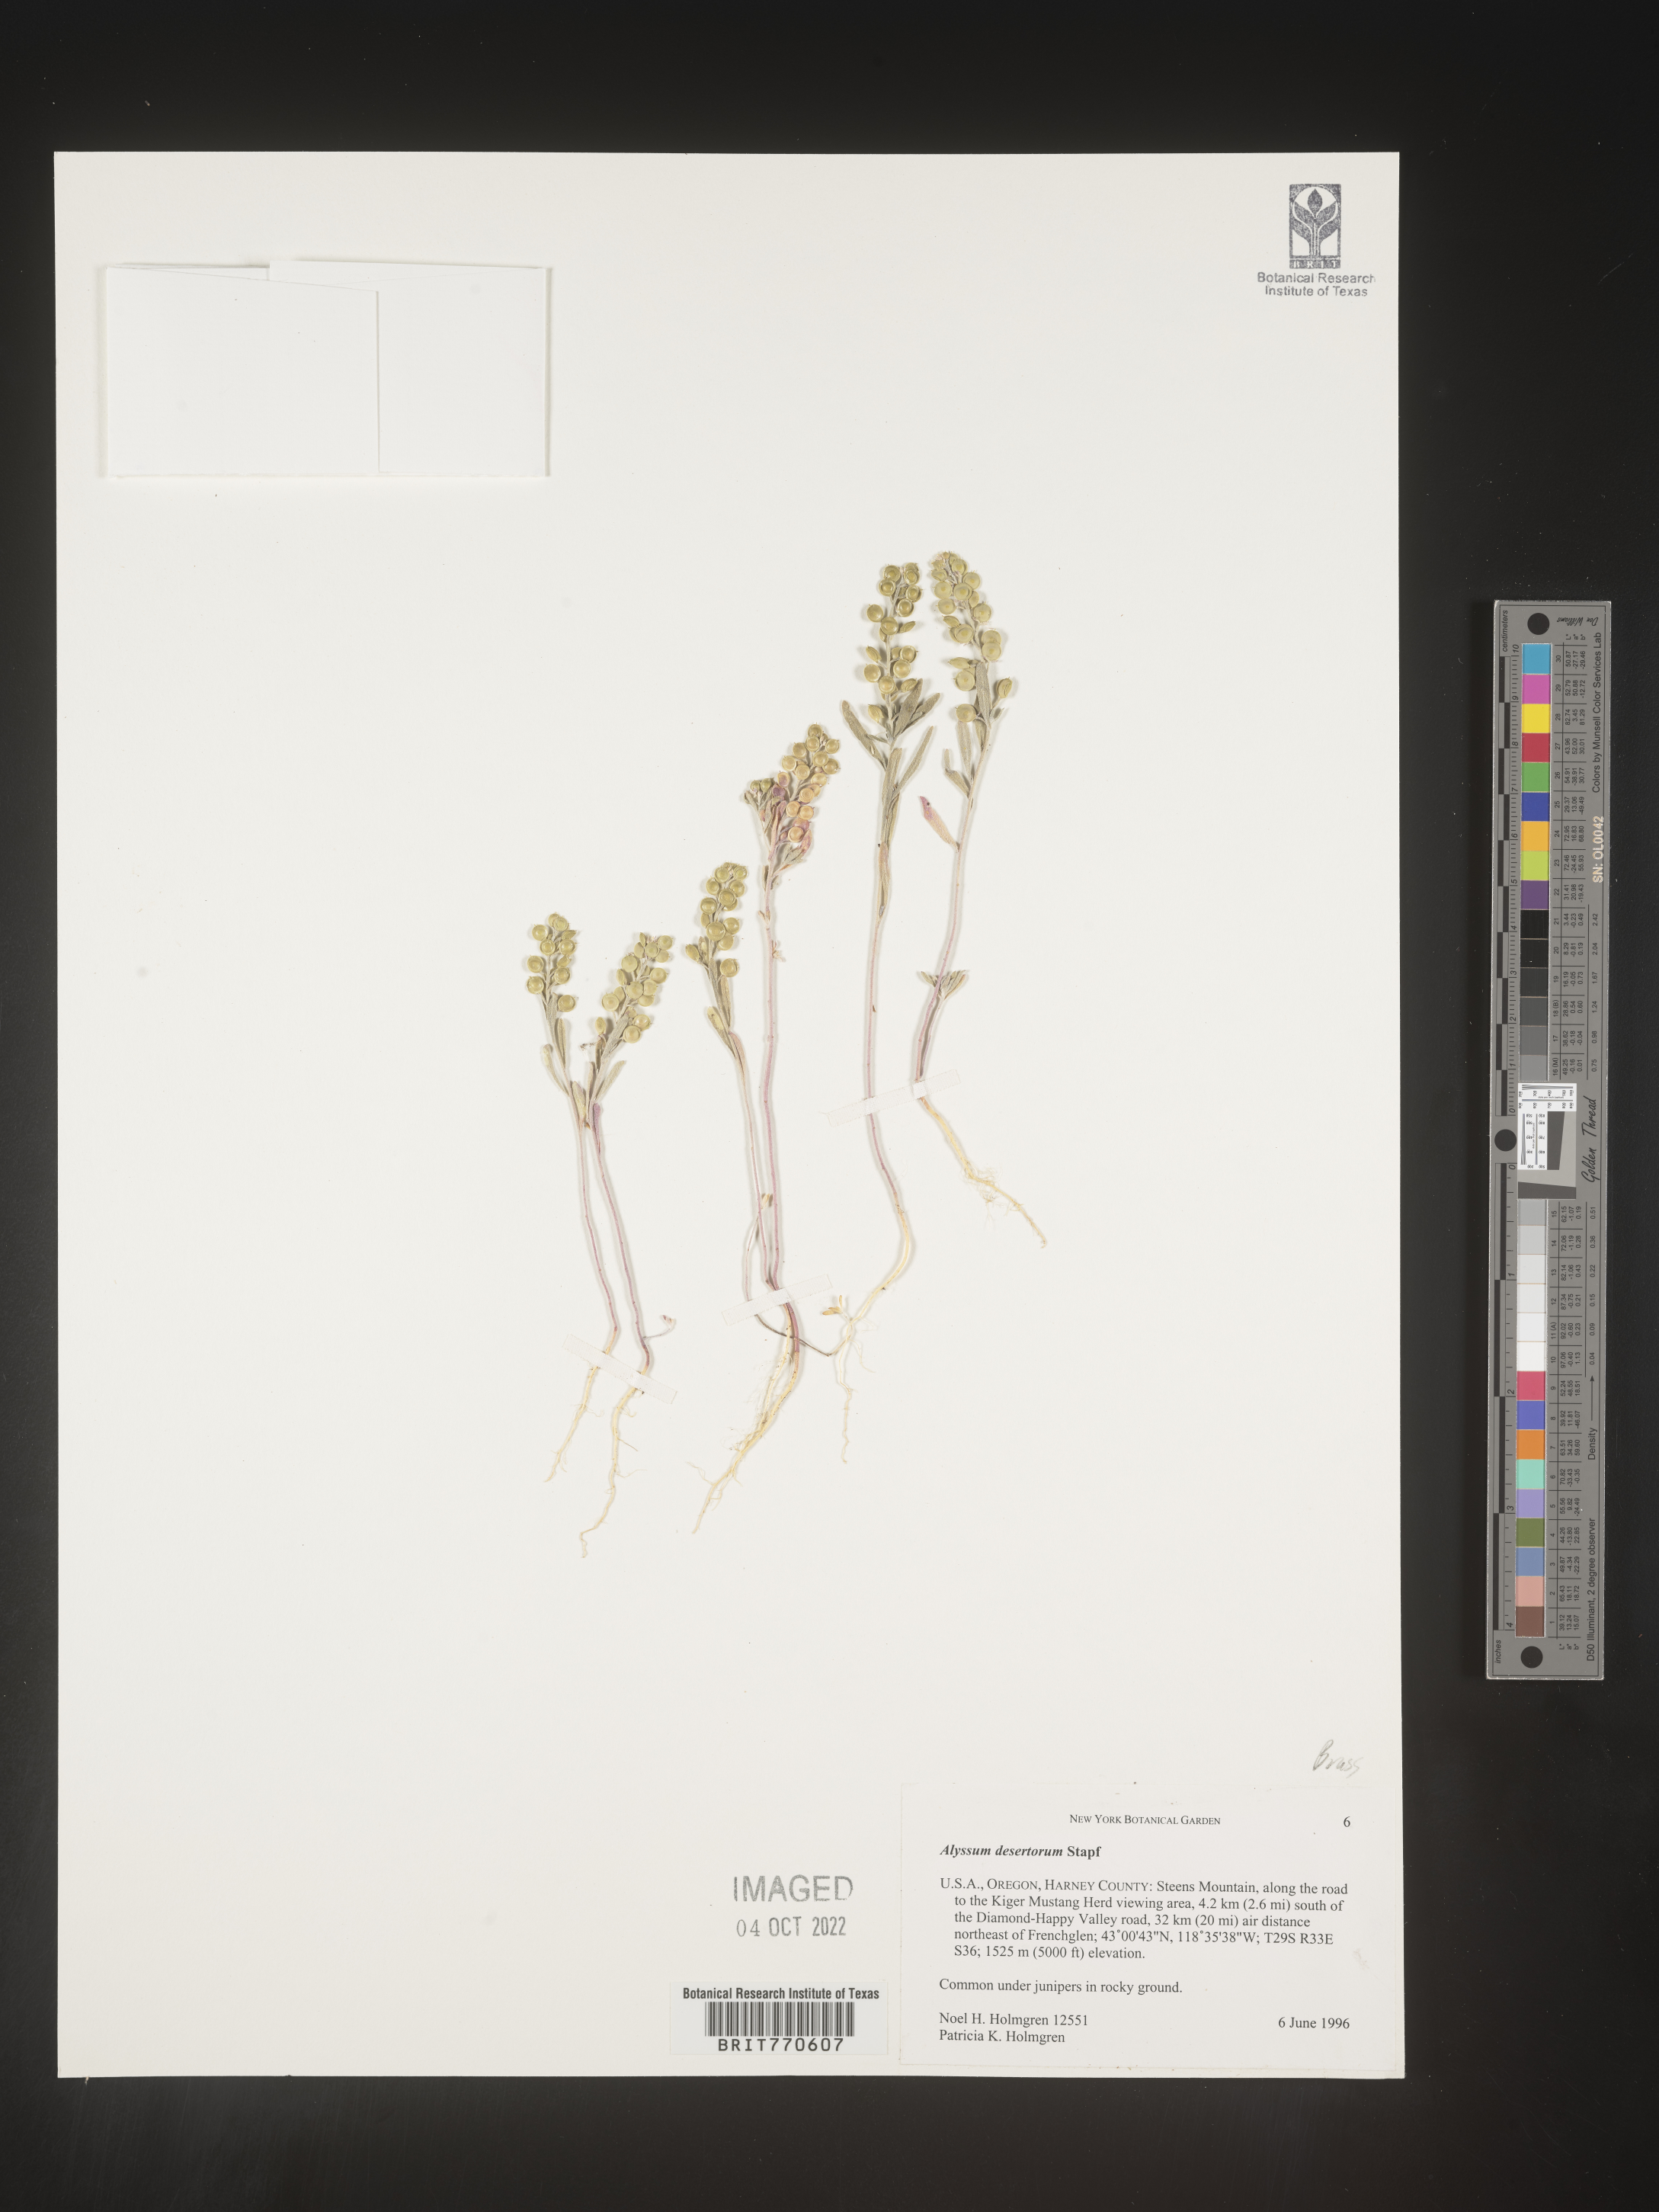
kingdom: Plantae
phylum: Tracheophyta
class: Magnoliopsida
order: Brassicales
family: Brassicaceae
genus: Alyssum
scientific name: Alyssum turkestanicum
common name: Desert alyssum
